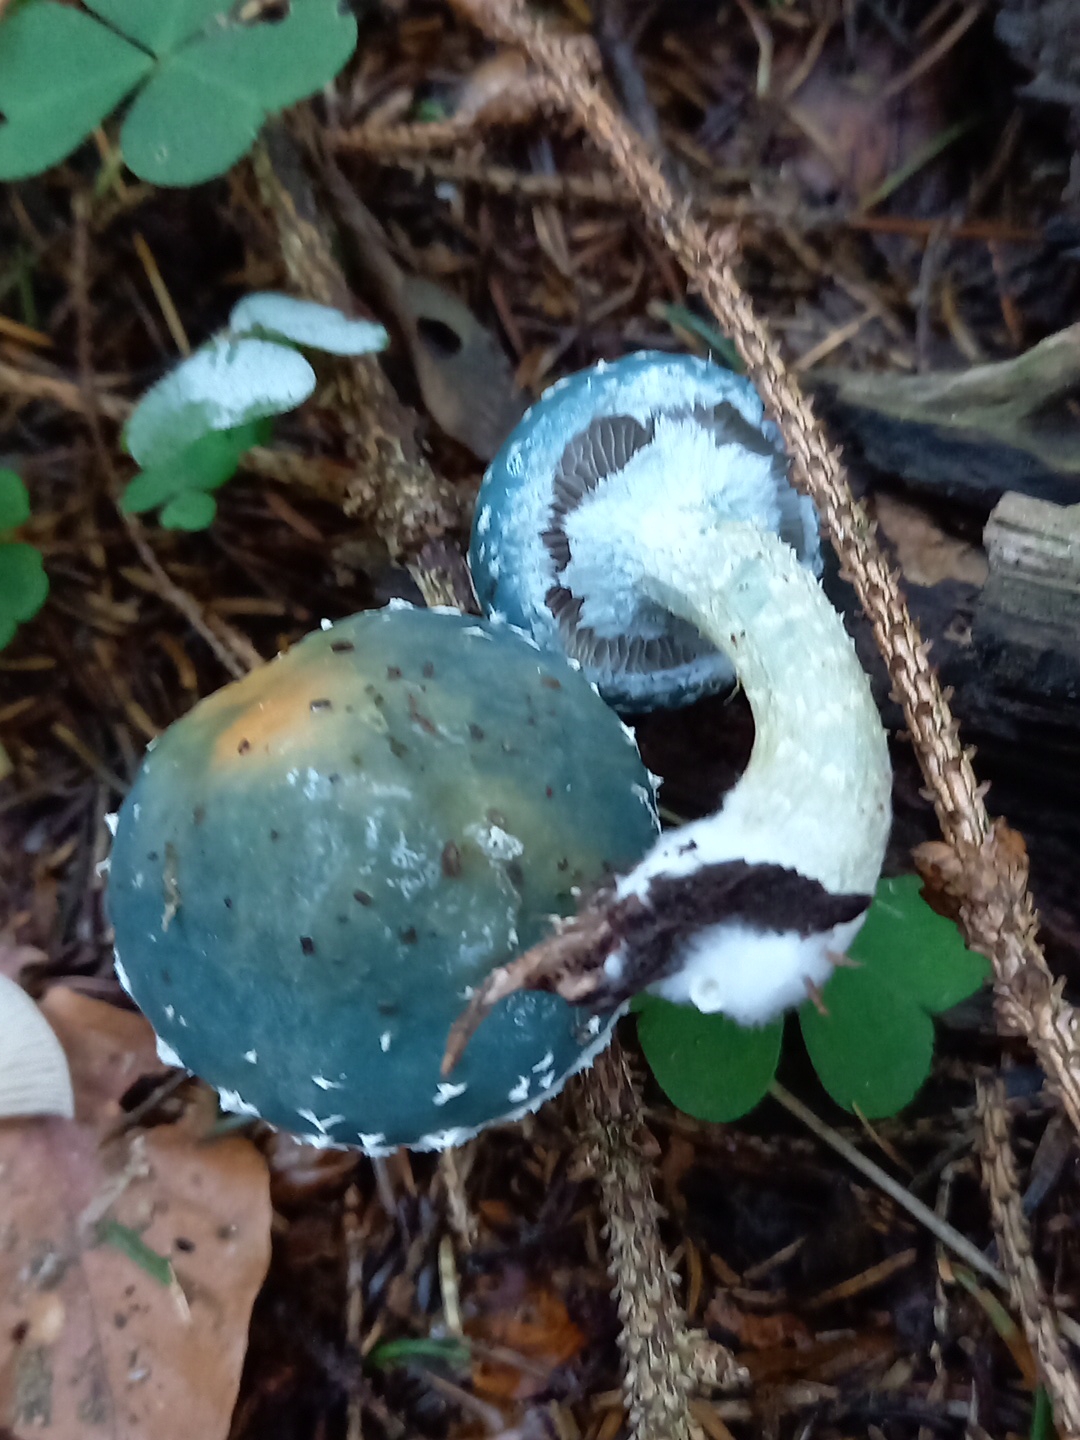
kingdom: Fungi
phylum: Basidiomycota
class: Agaricomycetes
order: Agaricales
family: Strophariaceae
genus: Stropharia
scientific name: Stropharia aeruginosa
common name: spanskgrøn bredblad
